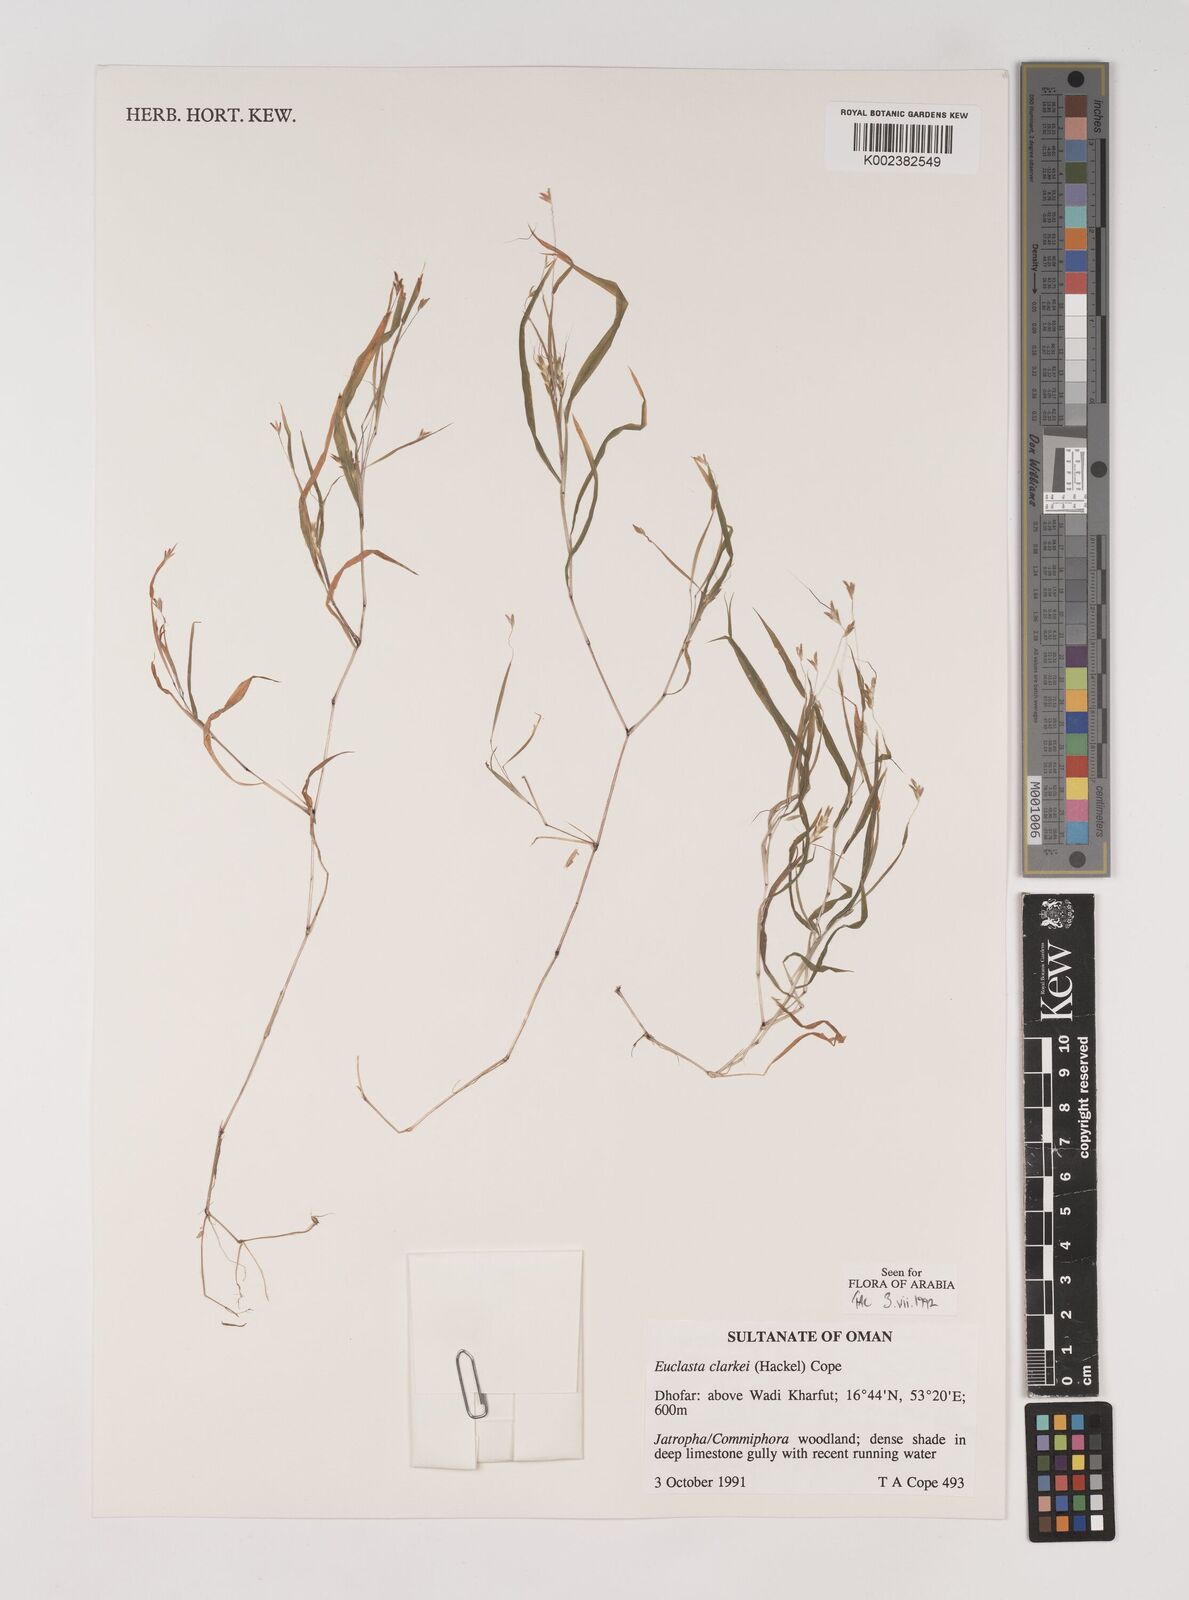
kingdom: Plantae
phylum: Tracheophyta
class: Liliopsida
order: Poales
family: Poaceae
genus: Euclasta
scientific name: Euclasta clarkei
